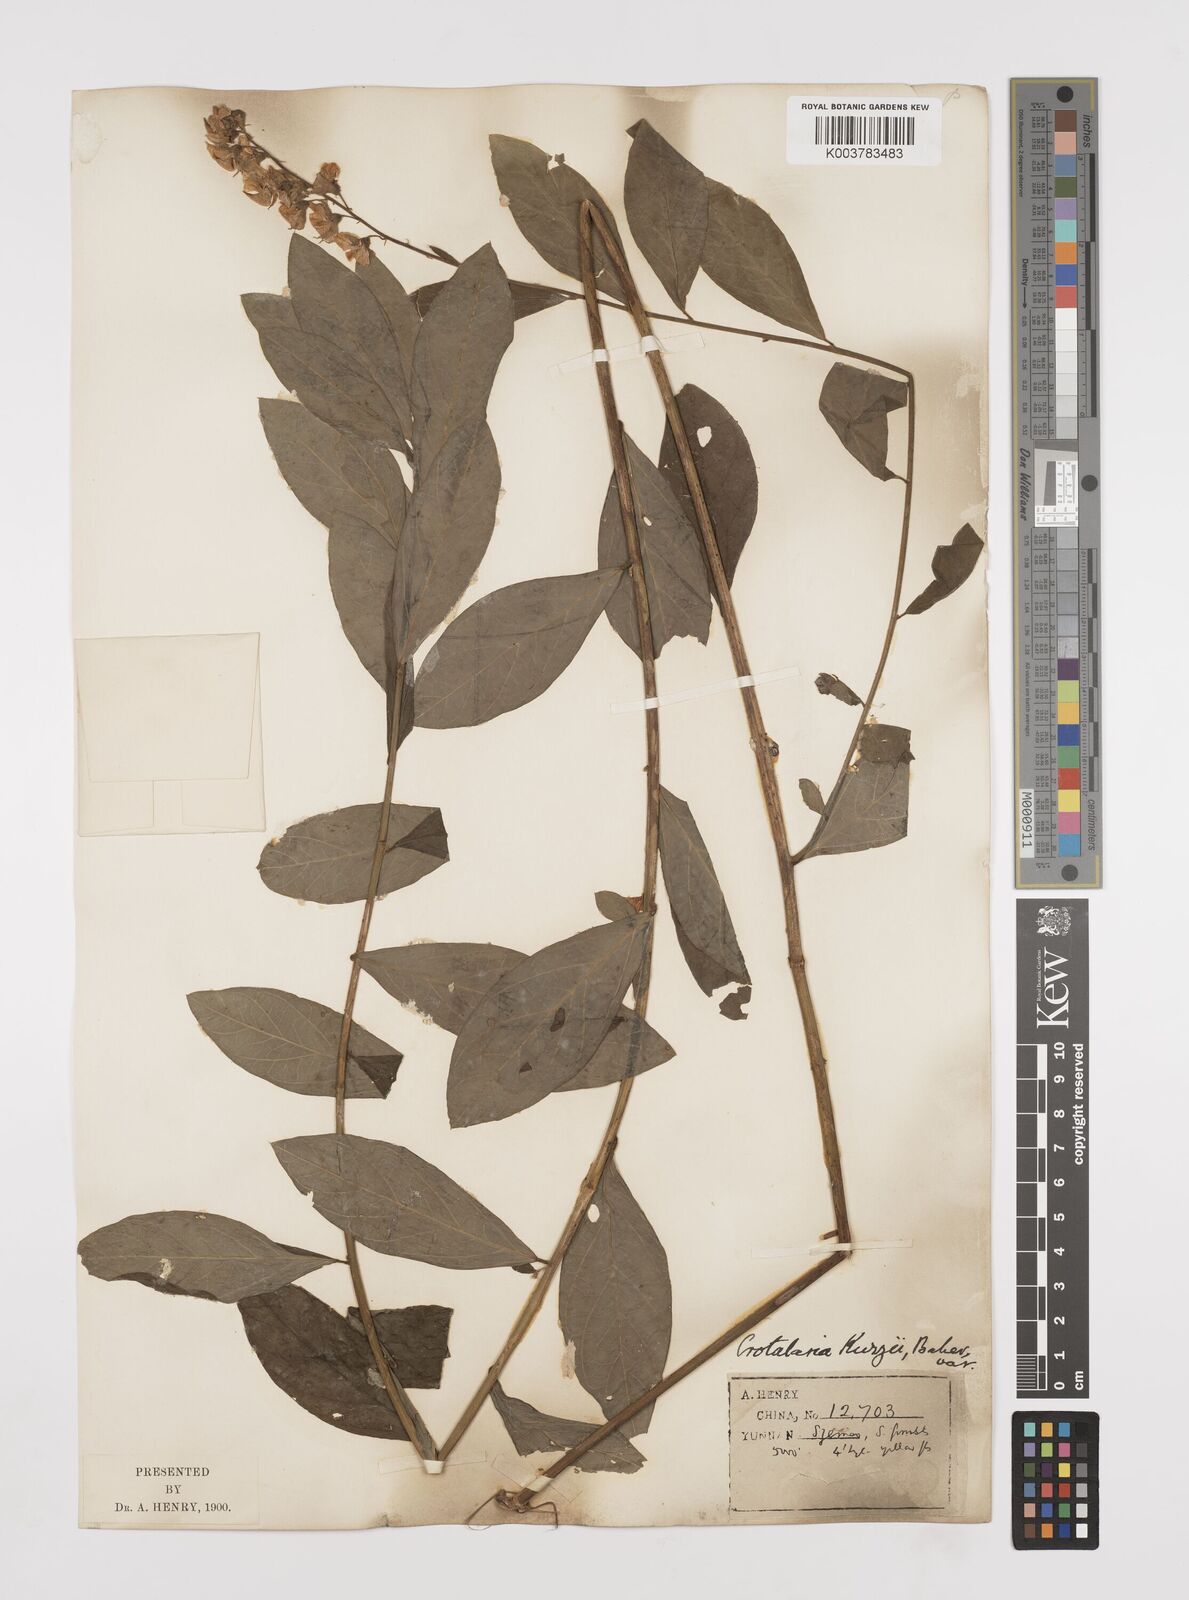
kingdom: Plantae
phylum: Tracheophyta
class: Magnoliopsida
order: Fabales
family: Fabaceae
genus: Crotalaria
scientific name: Crotalaria kurzii
